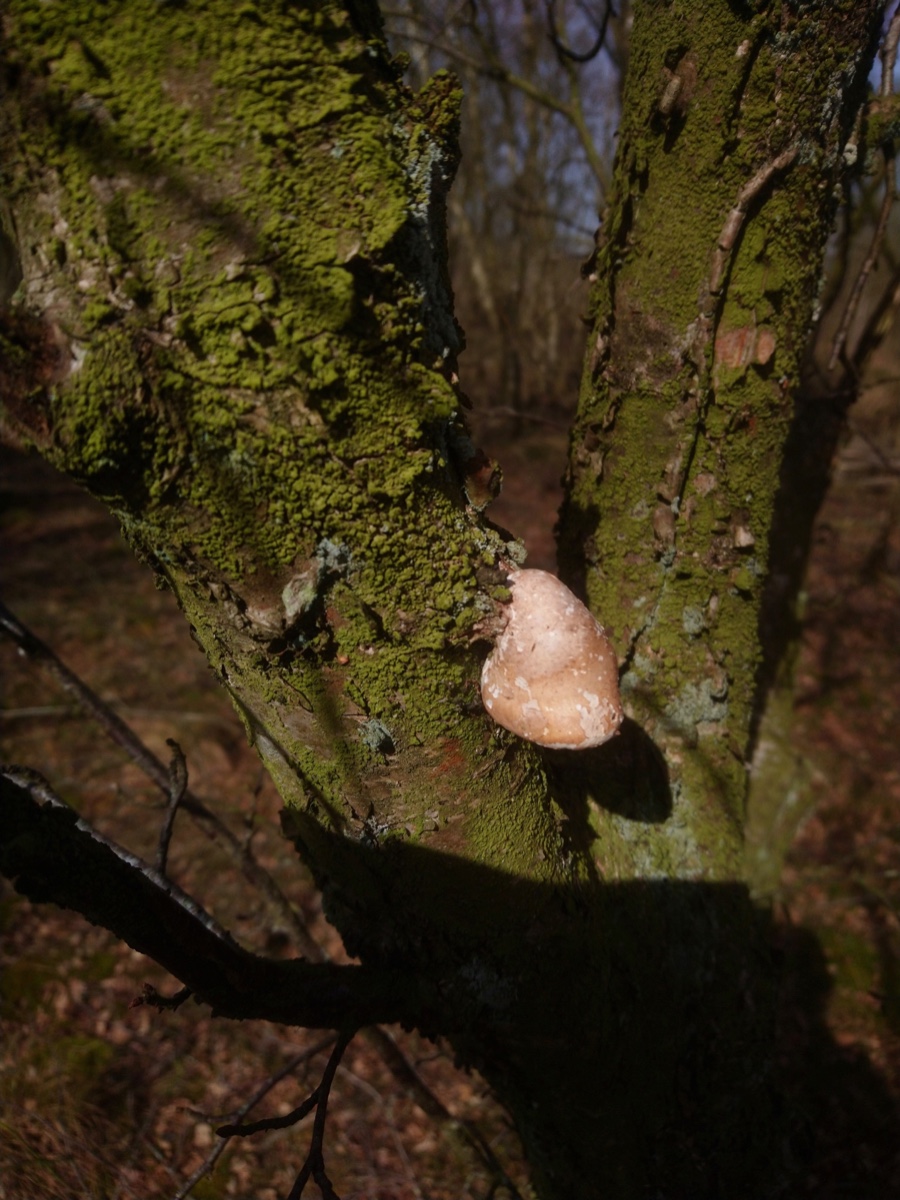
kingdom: Fungi
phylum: Basidiomycota
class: Agaricomycetes
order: Polyporales
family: Fomitopsidaceae
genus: Fomitopsis
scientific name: Fomitopsis betulina
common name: birkeporesvamp
